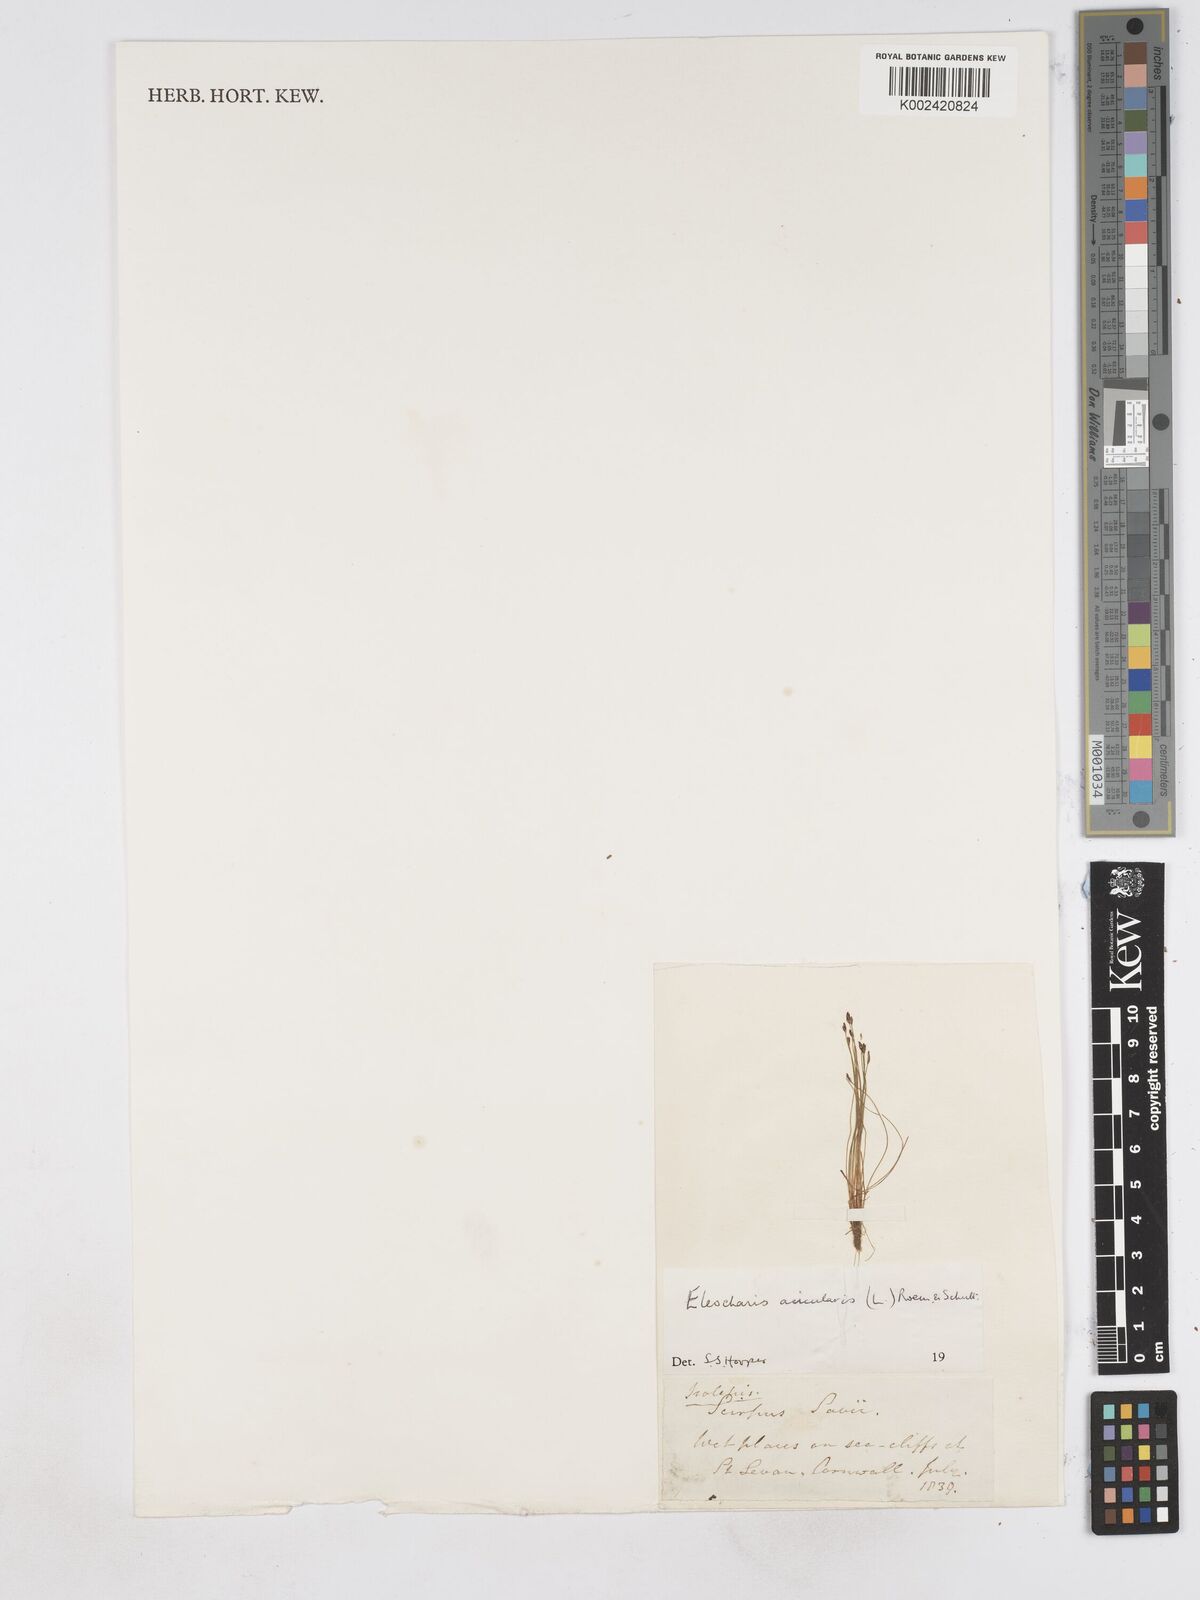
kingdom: Plantae
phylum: Tracheophyta
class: Liliopsida
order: Poales
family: Cyperaceae
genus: Eleocharis
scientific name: Eleocharis acicularis
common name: Needle spike-rush
